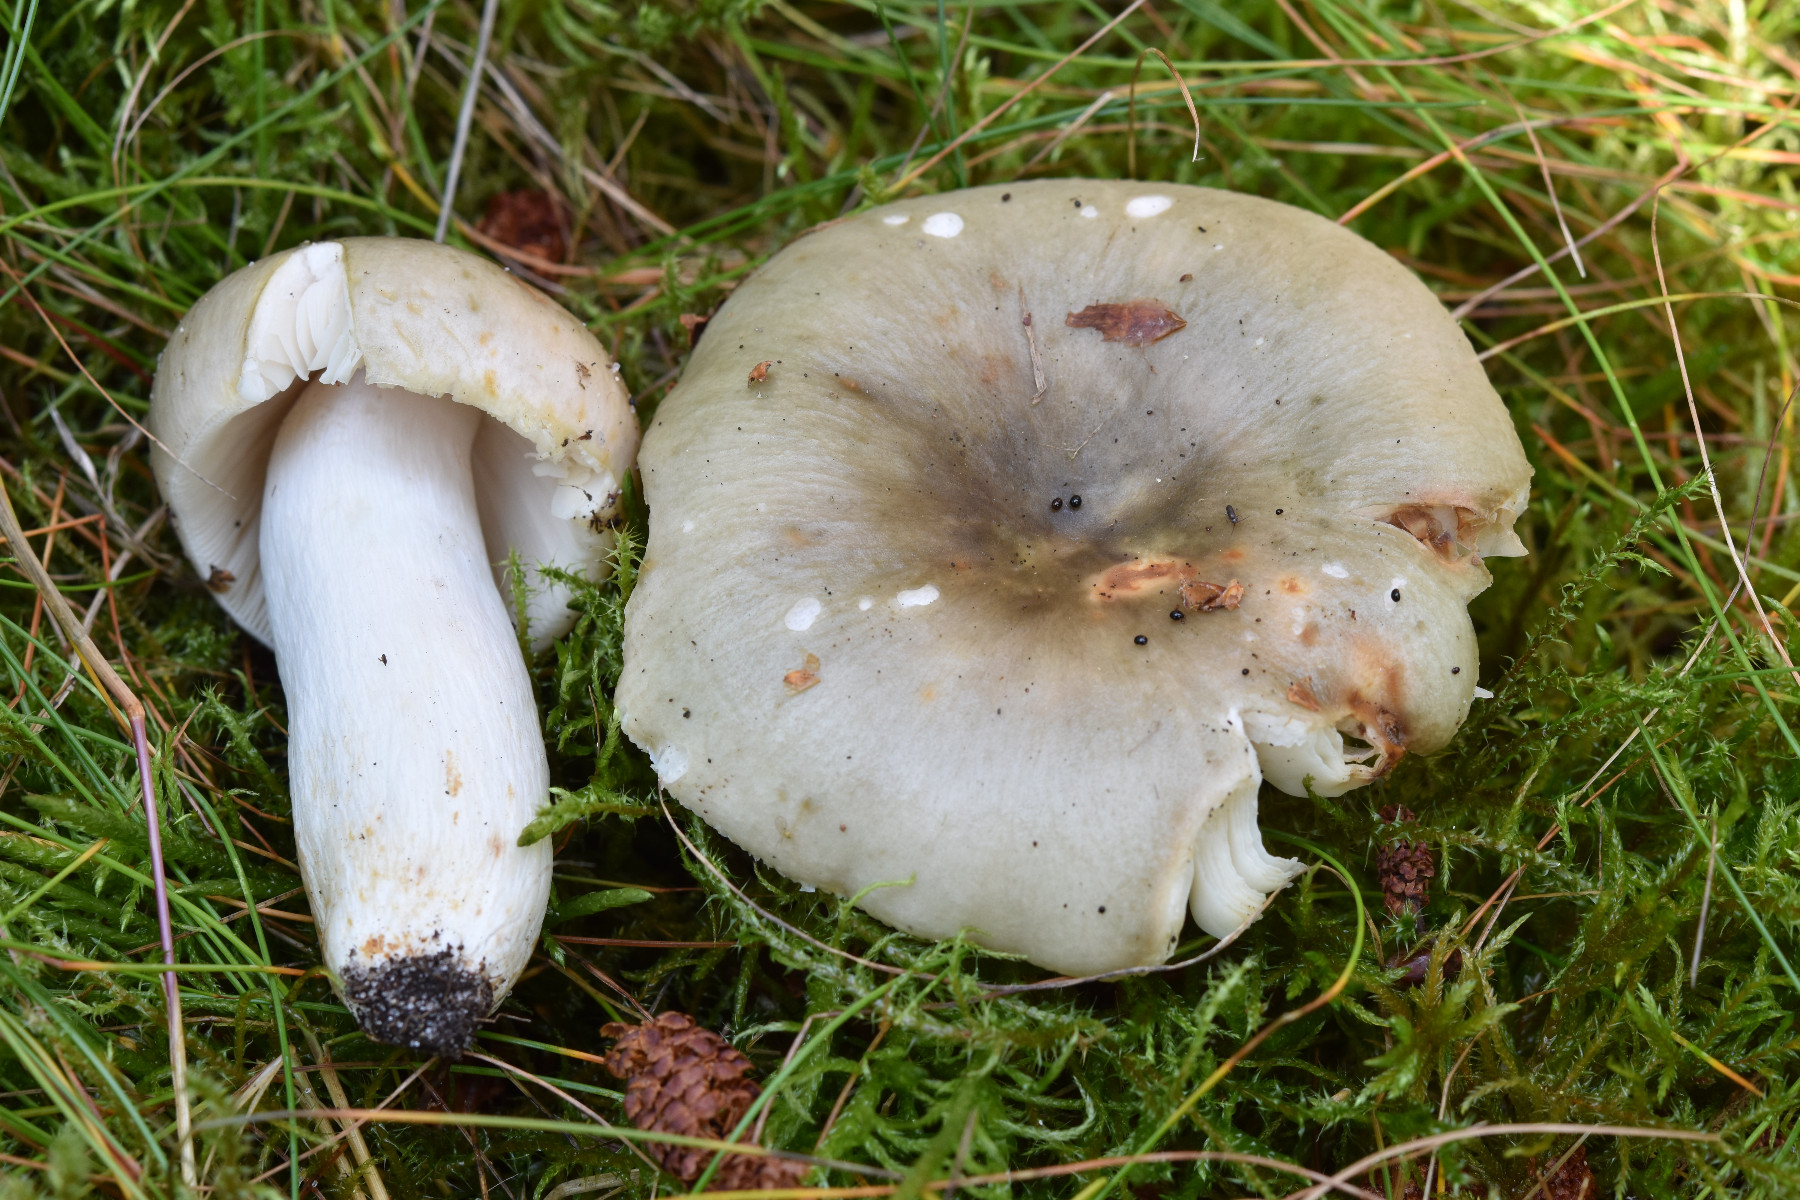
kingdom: Fungi
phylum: Basidiomycota
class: Agaricomycetes
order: Russulales
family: Russulaceae
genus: Russula
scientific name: Russula aeruginea
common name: græsgrøn skørhat
